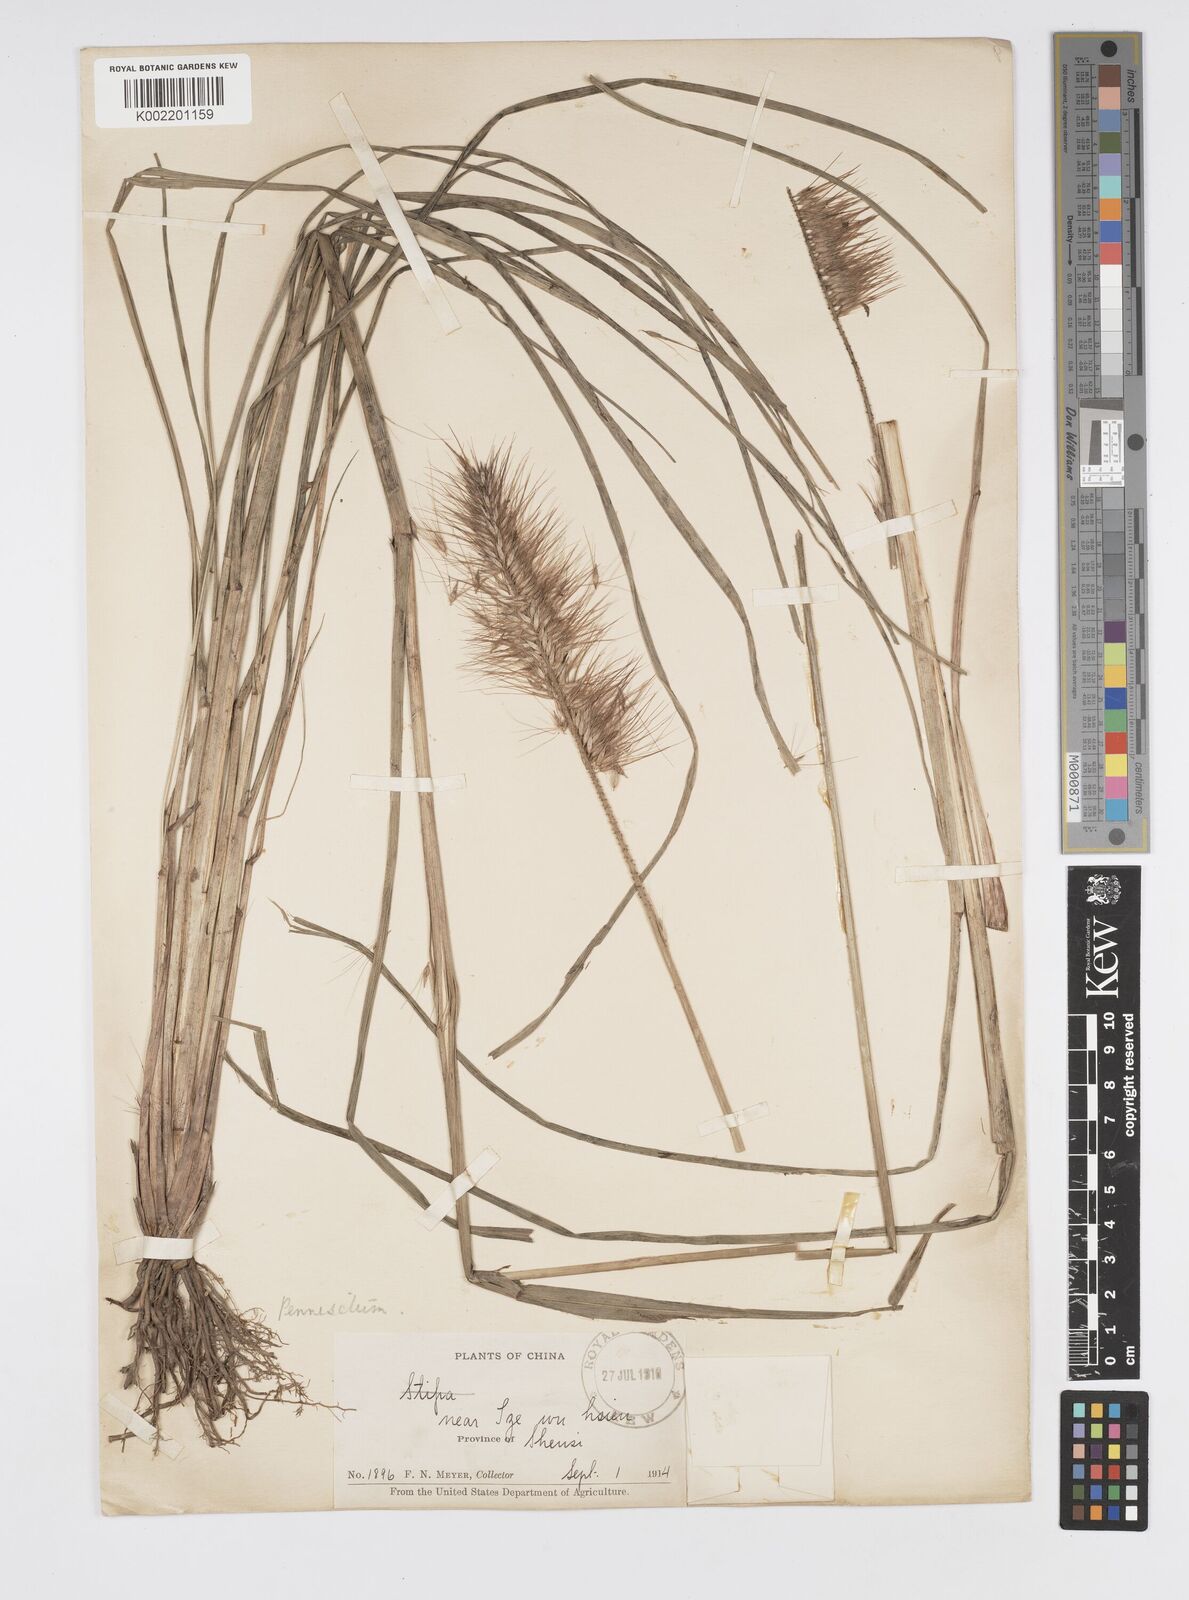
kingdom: Plantae
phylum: Tracheophyta
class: Liliopsida
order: Poales
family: Poaceae
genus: Cenchrus
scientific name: Cenchrus alopecuroides
